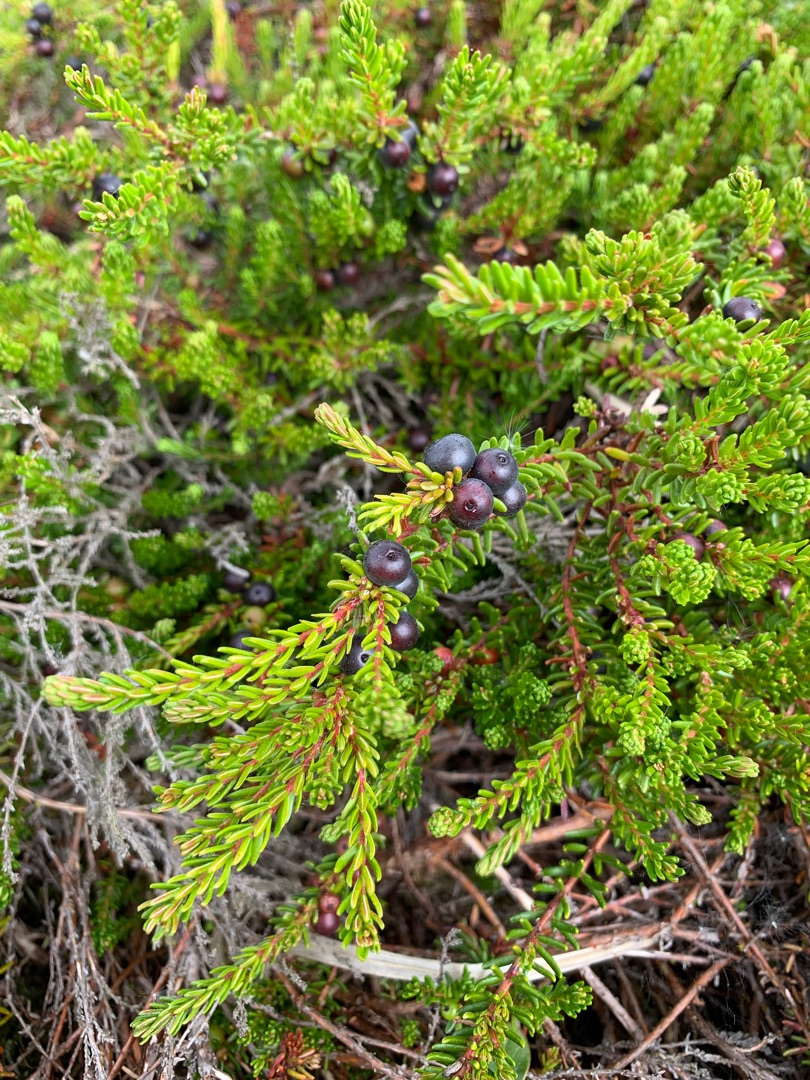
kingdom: Plantae
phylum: Tracheophyta
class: Magnoliopsida
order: Ericales
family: Ericaceae
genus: Empetrum
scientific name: Empetrum nigrum
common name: Revling
